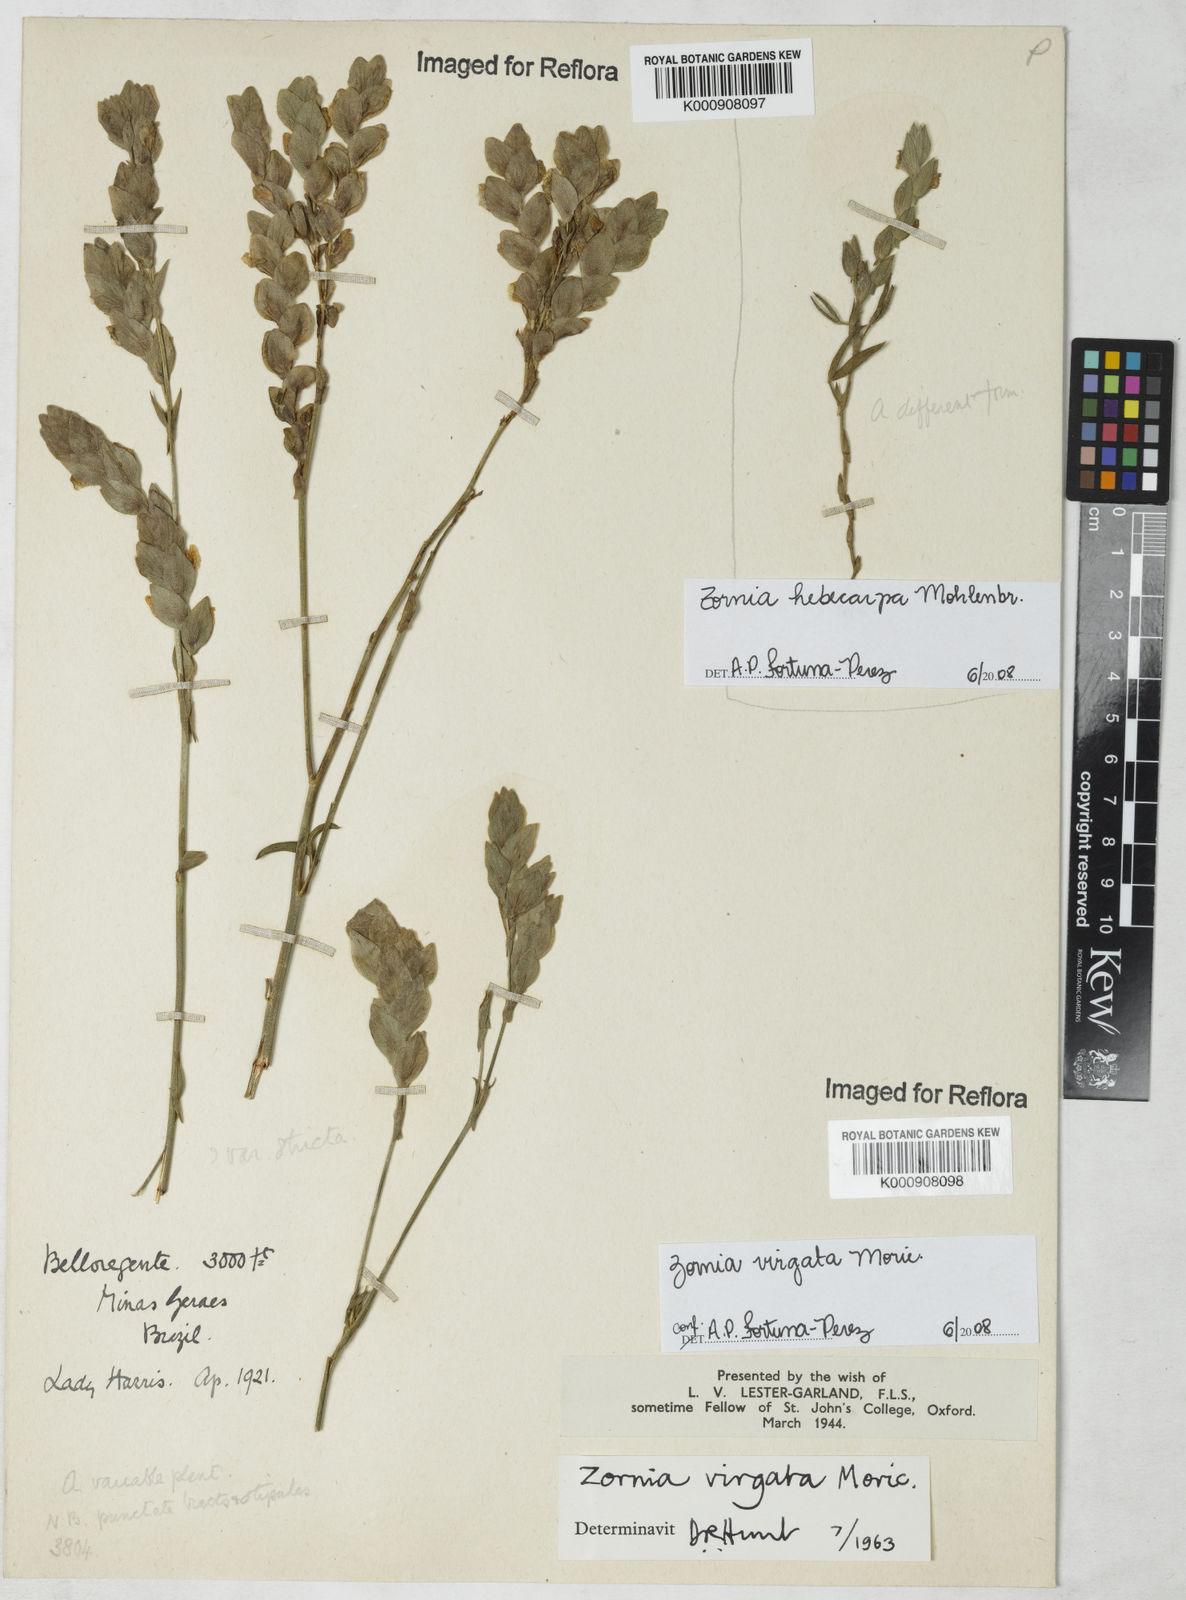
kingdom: Plantae
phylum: Tracheophyta
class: Magnoliopsida
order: Fabales
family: Fabaceae
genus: Zornia
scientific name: Zornia virgata
